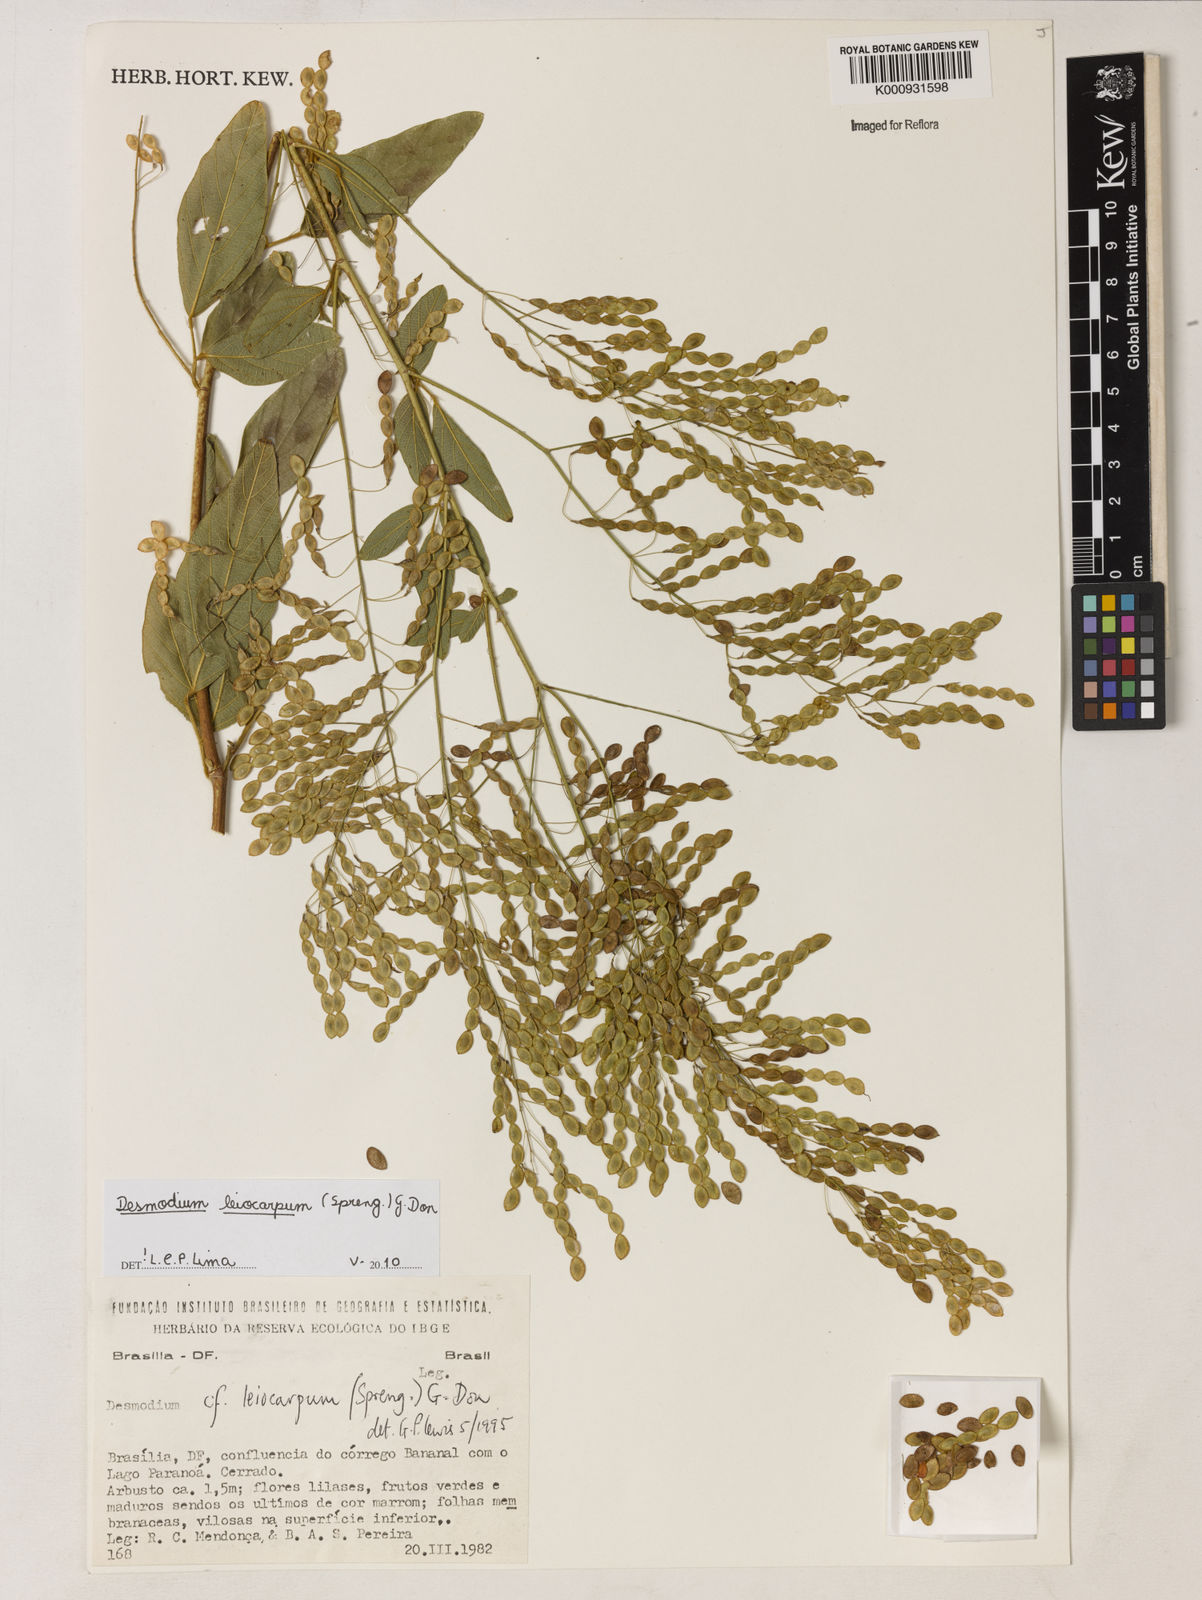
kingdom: Plantae
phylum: Tracheophyta
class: Magnoliopsida
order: Fabales
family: Fabaceae
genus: Desmodium
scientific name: Desmodium leiocarpum
